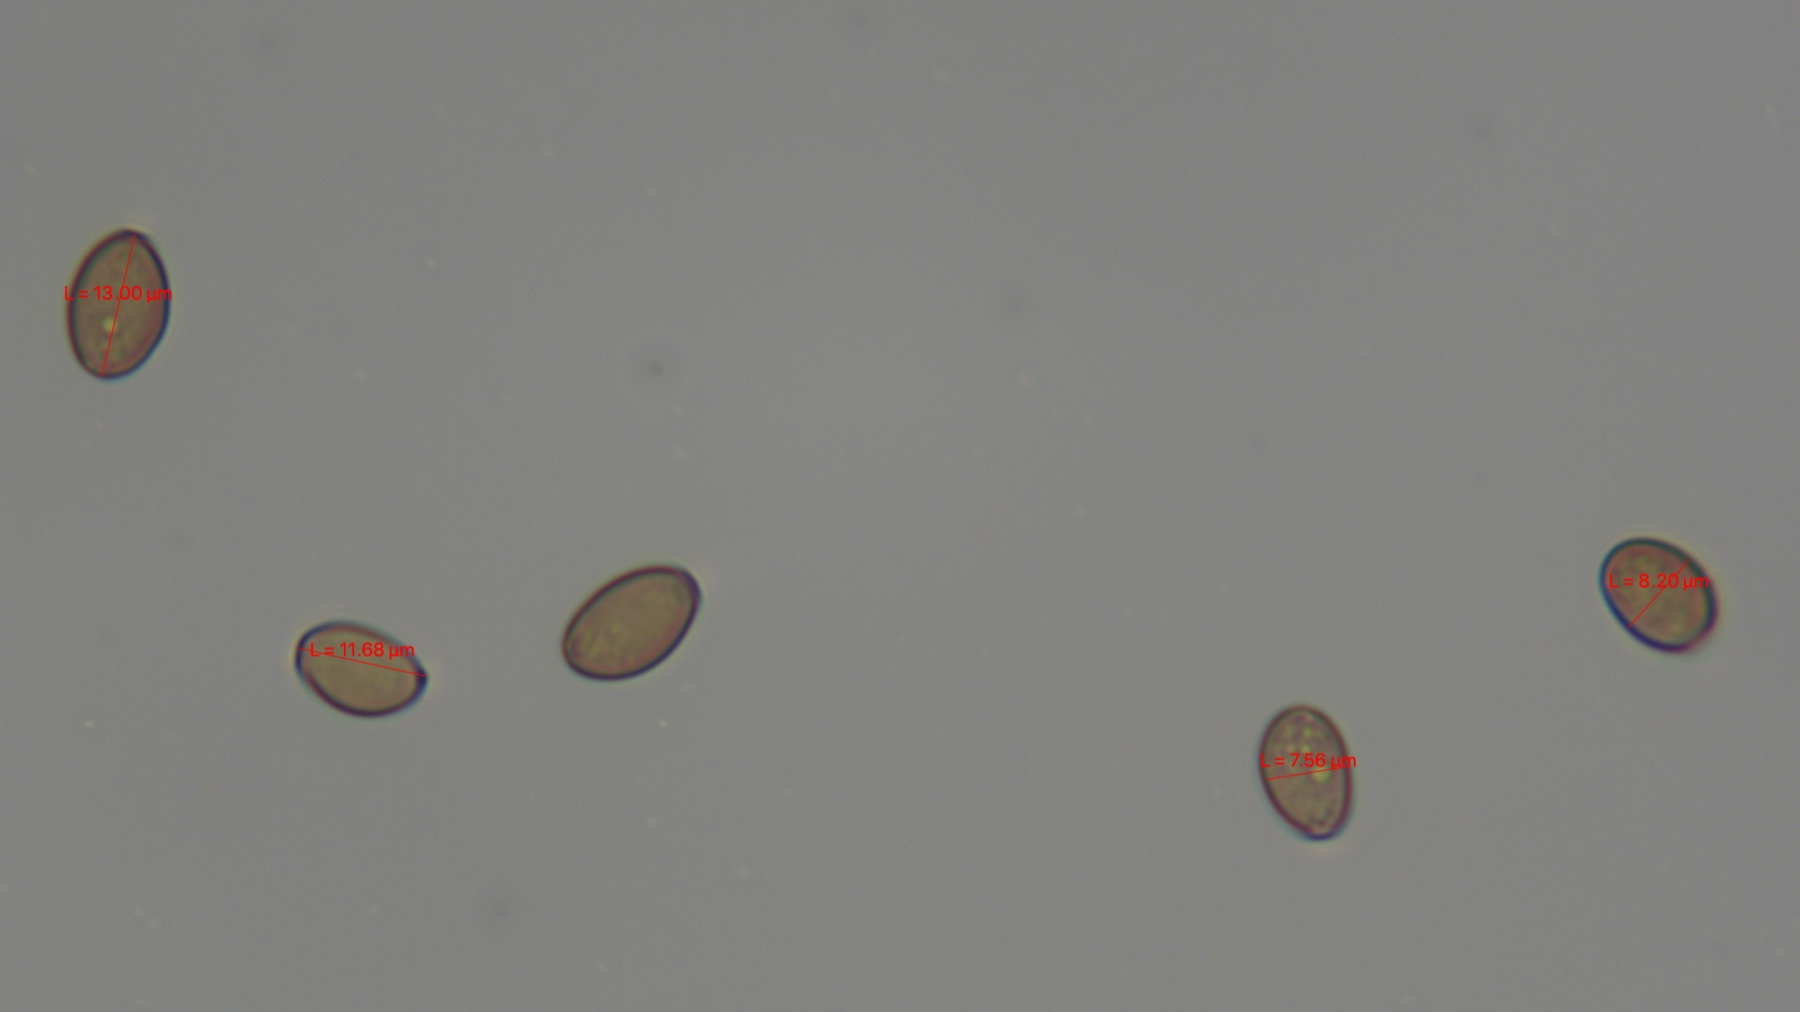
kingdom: Fungi
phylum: Basidiomycota
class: Agaricomycetes
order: Agaricales
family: Strophariaceae
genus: Agrocybe
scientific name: Agrocybe pediades
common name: almindelig agerhat
